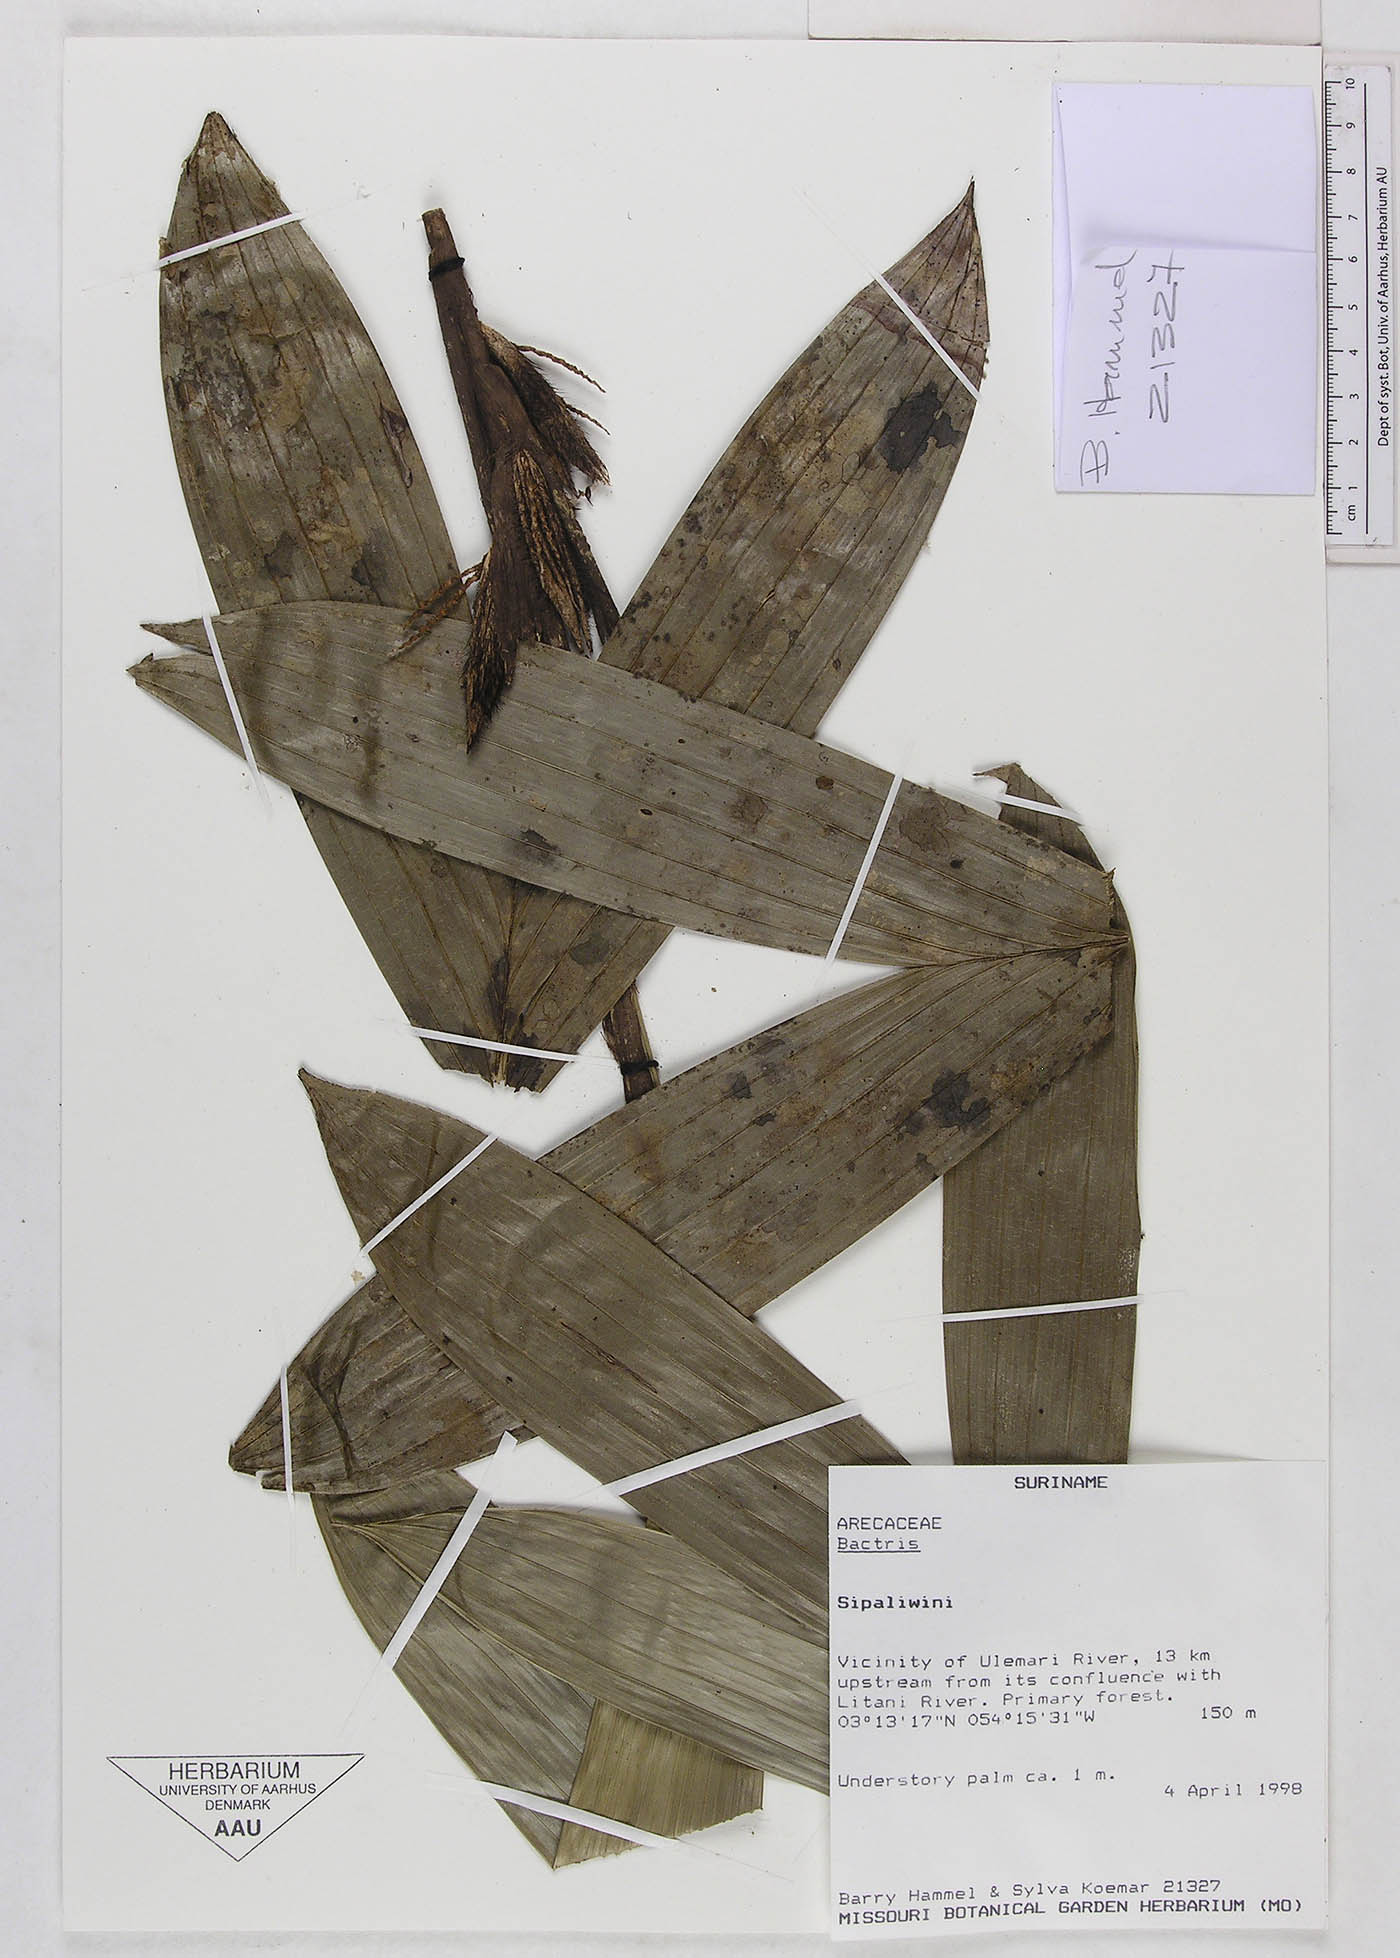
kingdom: Plantae
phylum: Tracheophyta
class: Liliopsida
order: Arecales
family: Arecaceae
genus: Bactris
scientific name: Bactris
